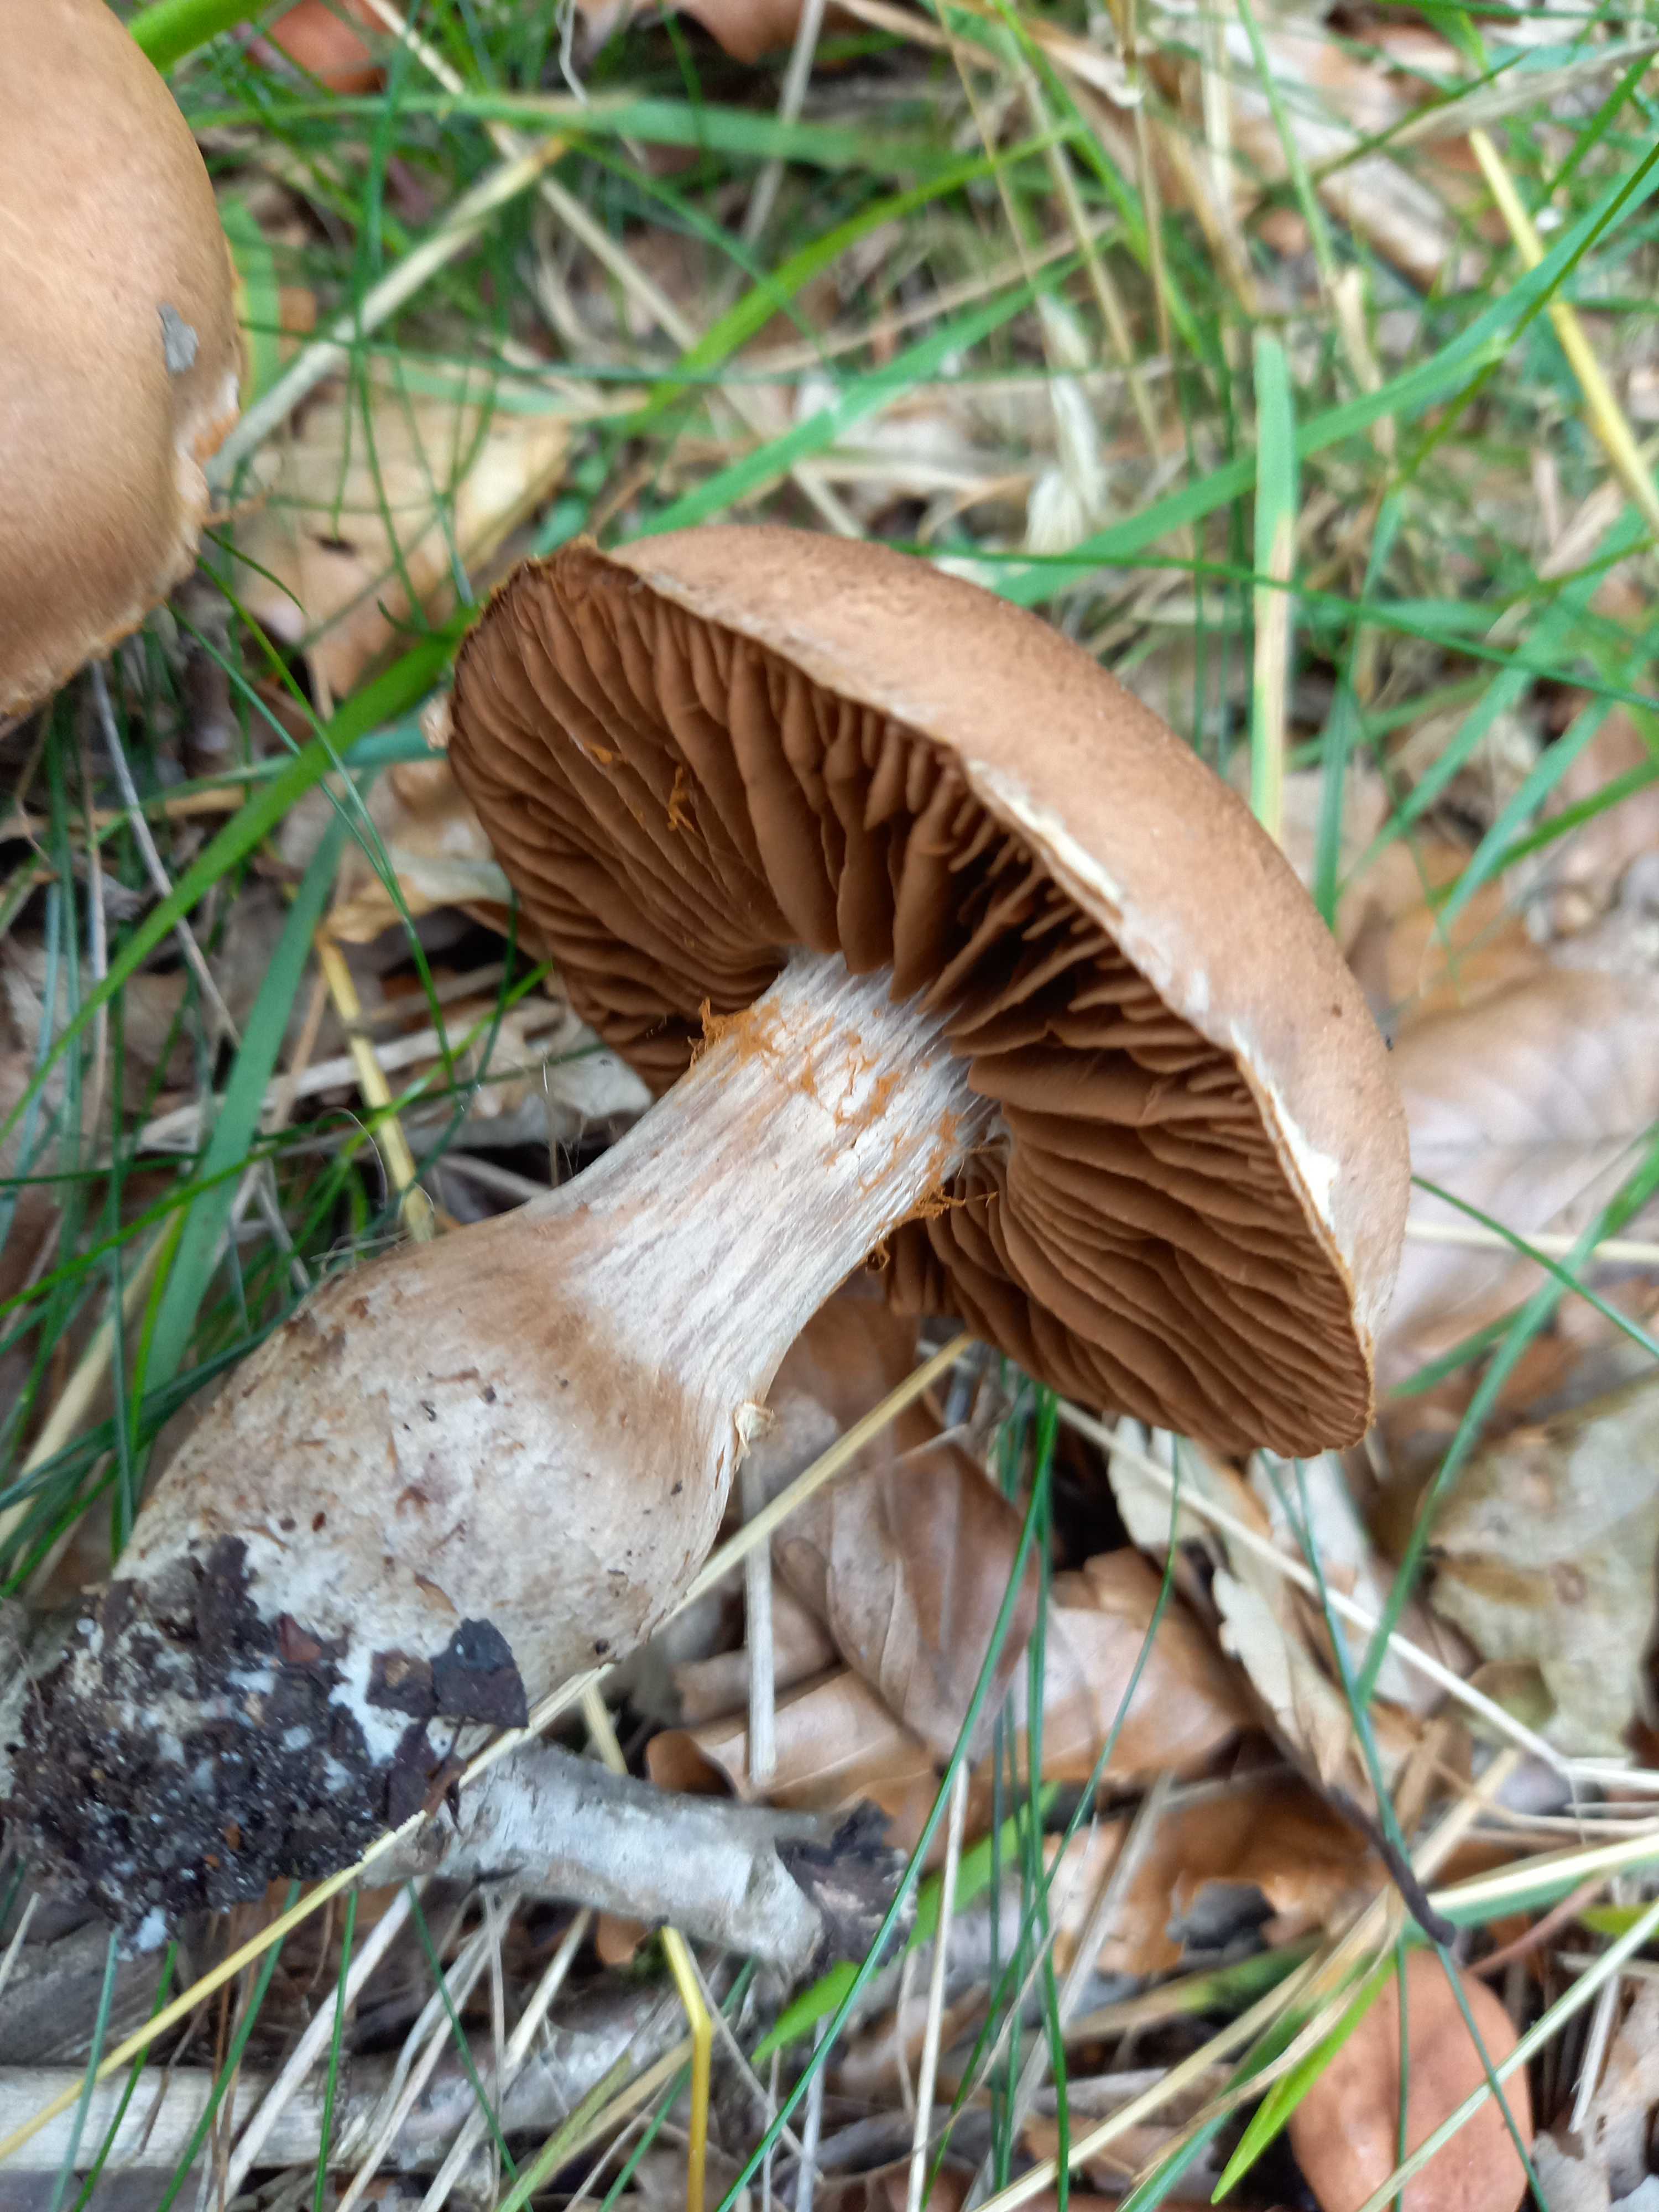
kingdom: Fungi
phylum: Basidiomycota
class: Agaricomycetes
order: Agaricales
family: Cortinariaceae
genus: Cortinarius
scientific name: Cortinarius
